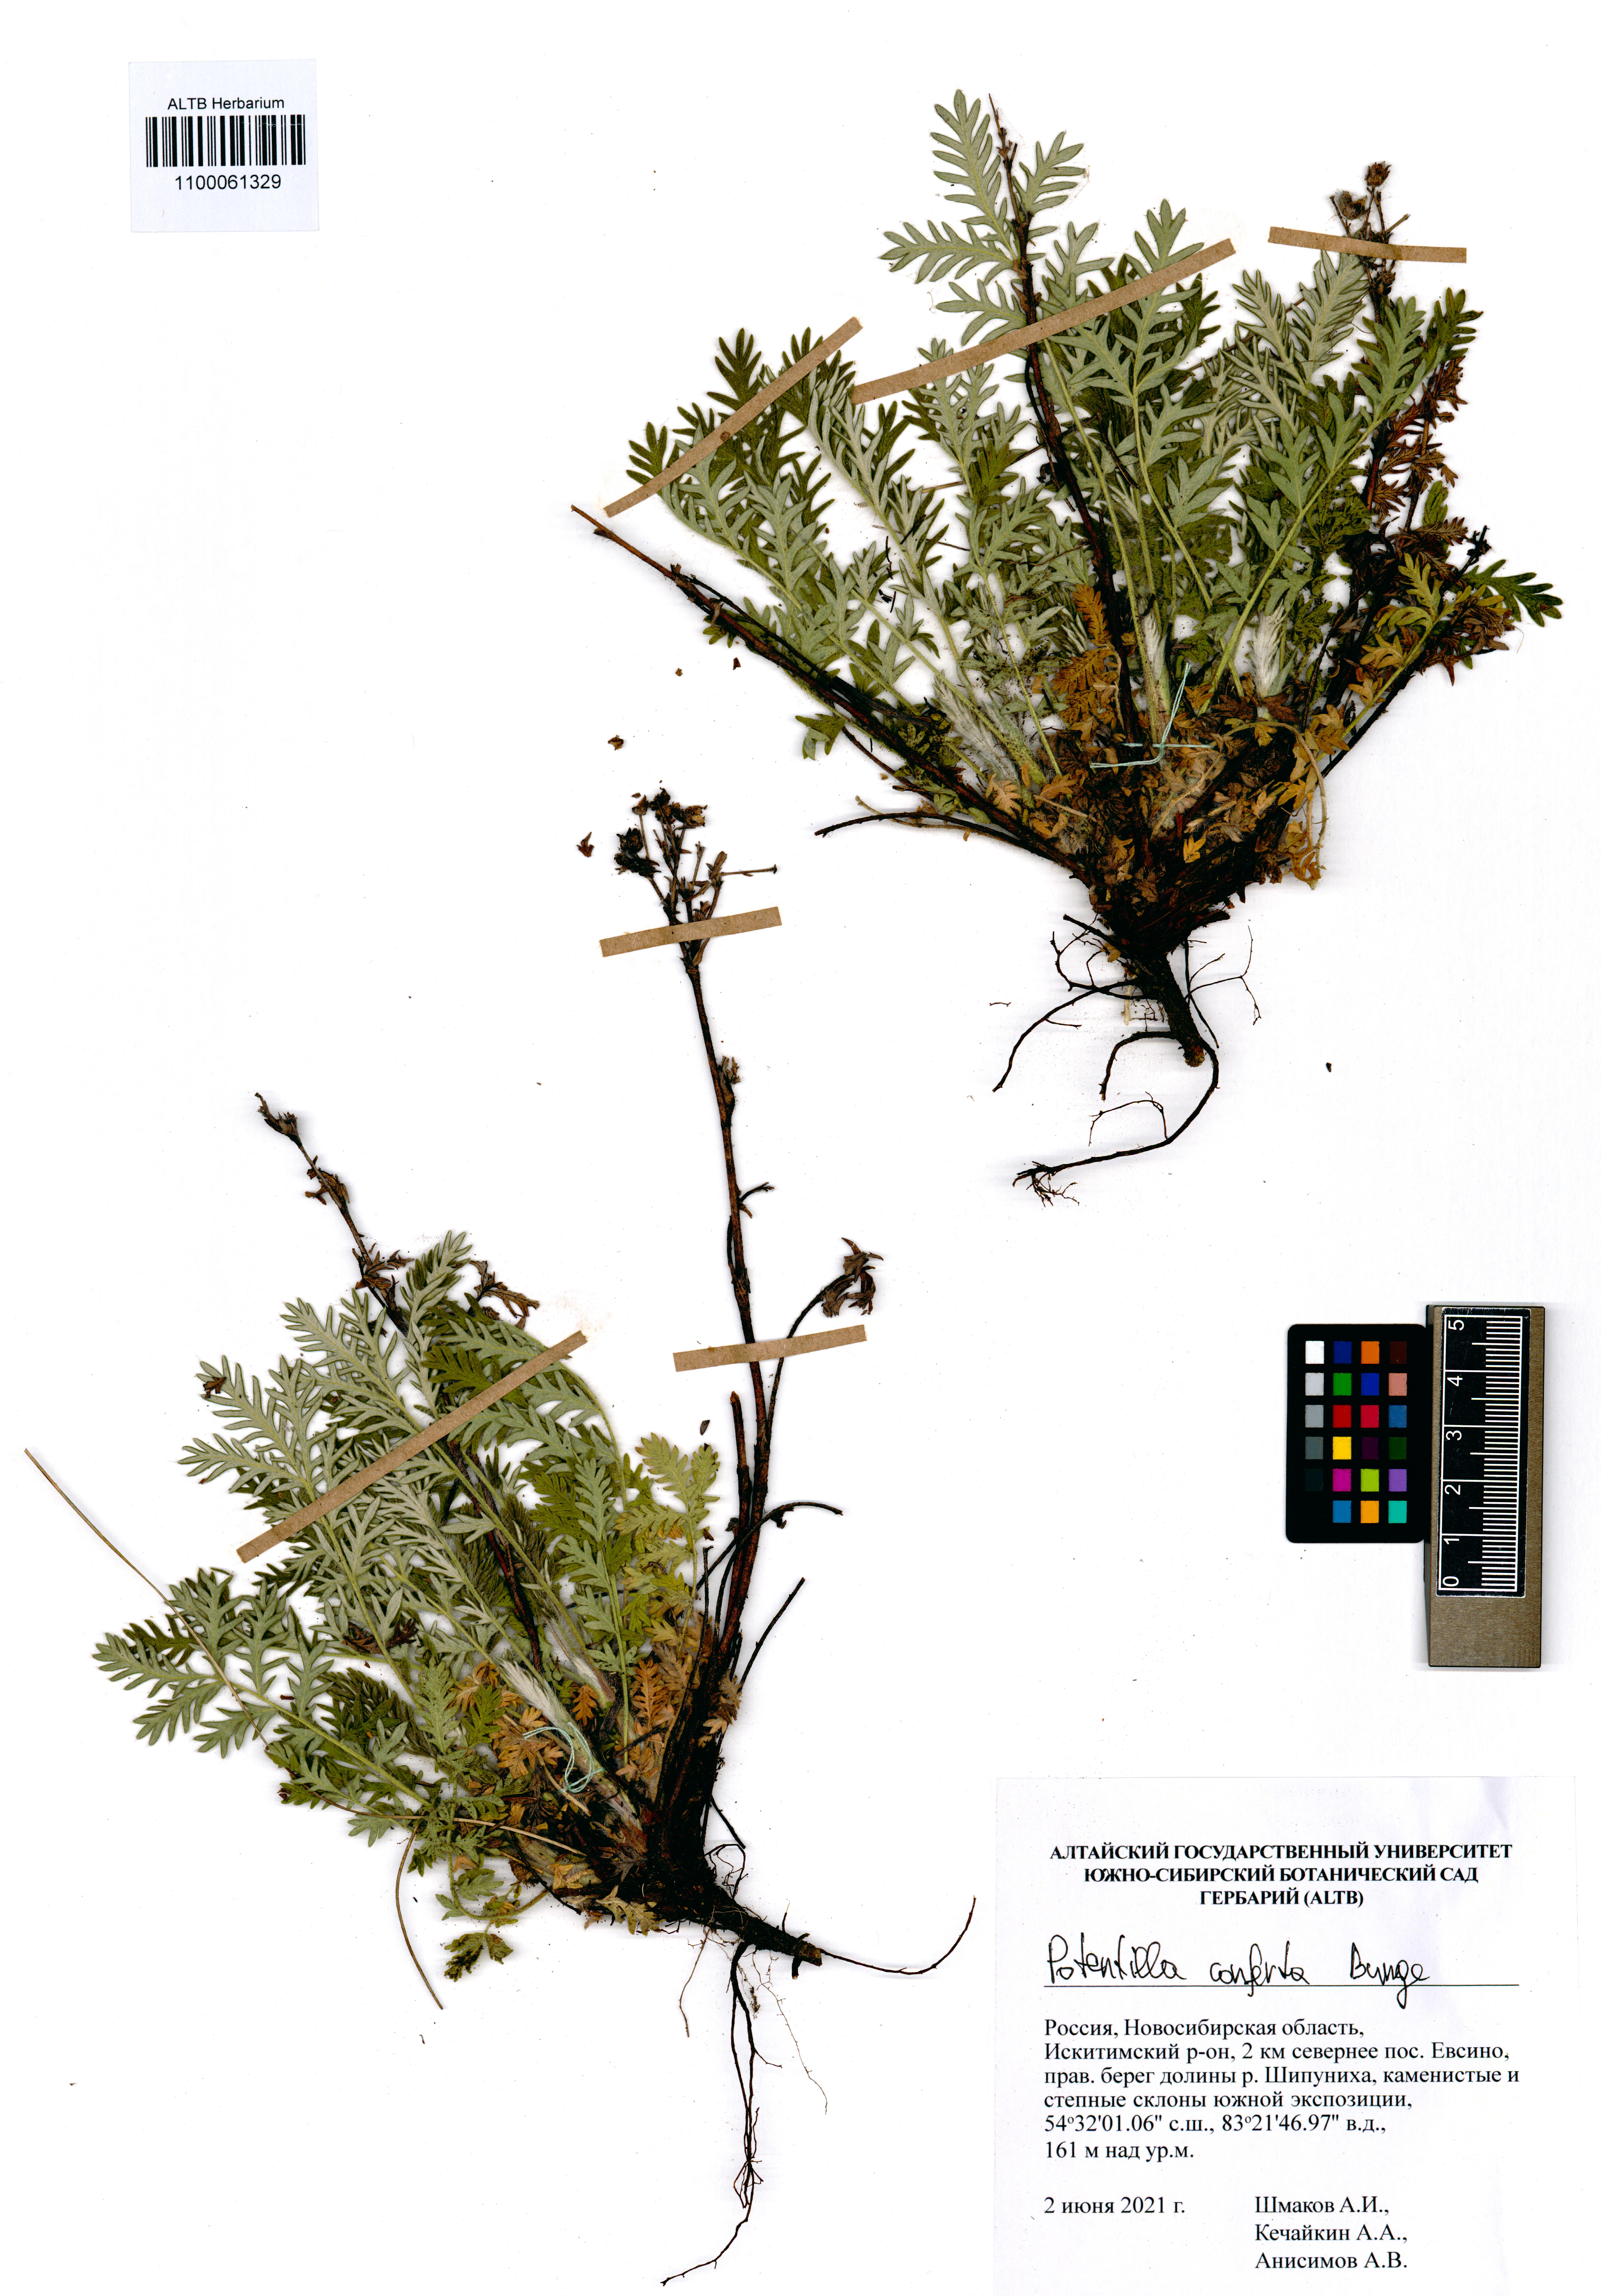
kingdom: Plantae
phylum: Tracheophyta
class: Magnoliopsida
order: Rosales
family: Rosaceae
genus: Potentilla
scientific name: Potentilla conferta
